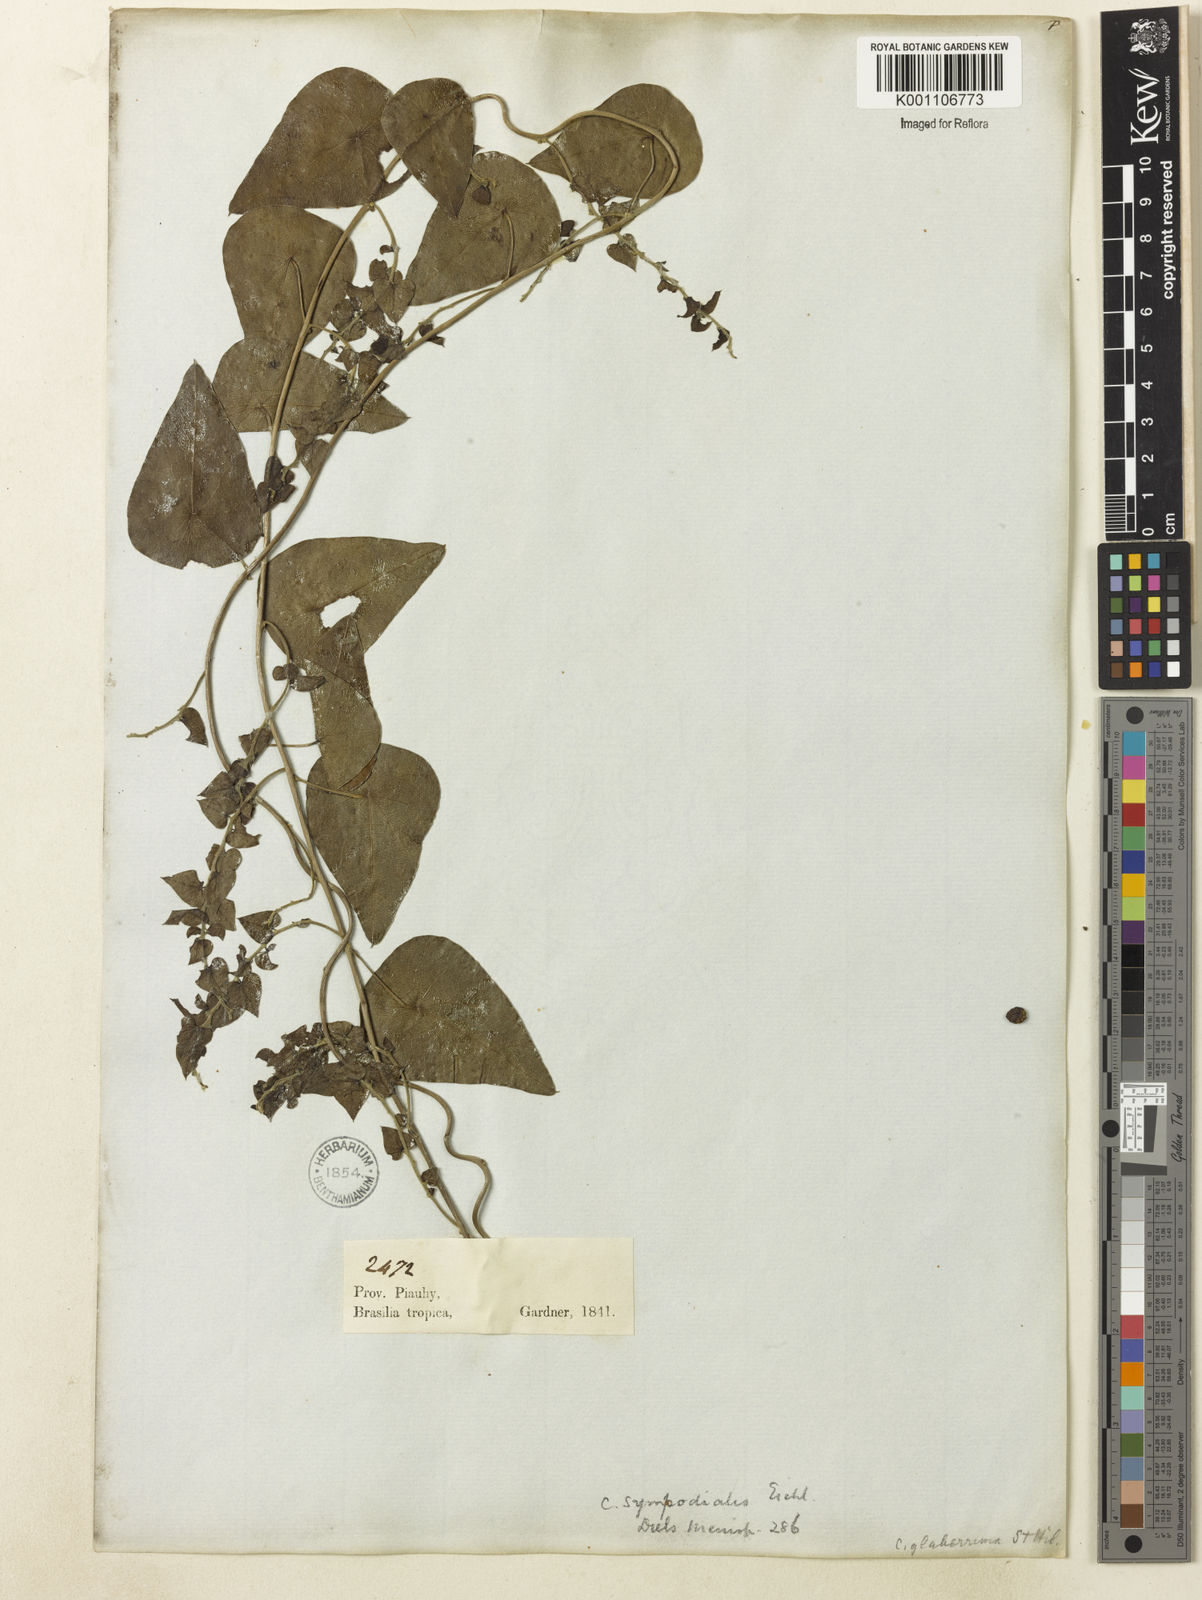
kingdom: Plantae
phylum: Tracheophyta
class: Magnoliopsida
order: Ranunculales
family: Menispermaceae
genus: Cissampelos
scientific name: Cissampelos sympodialis
